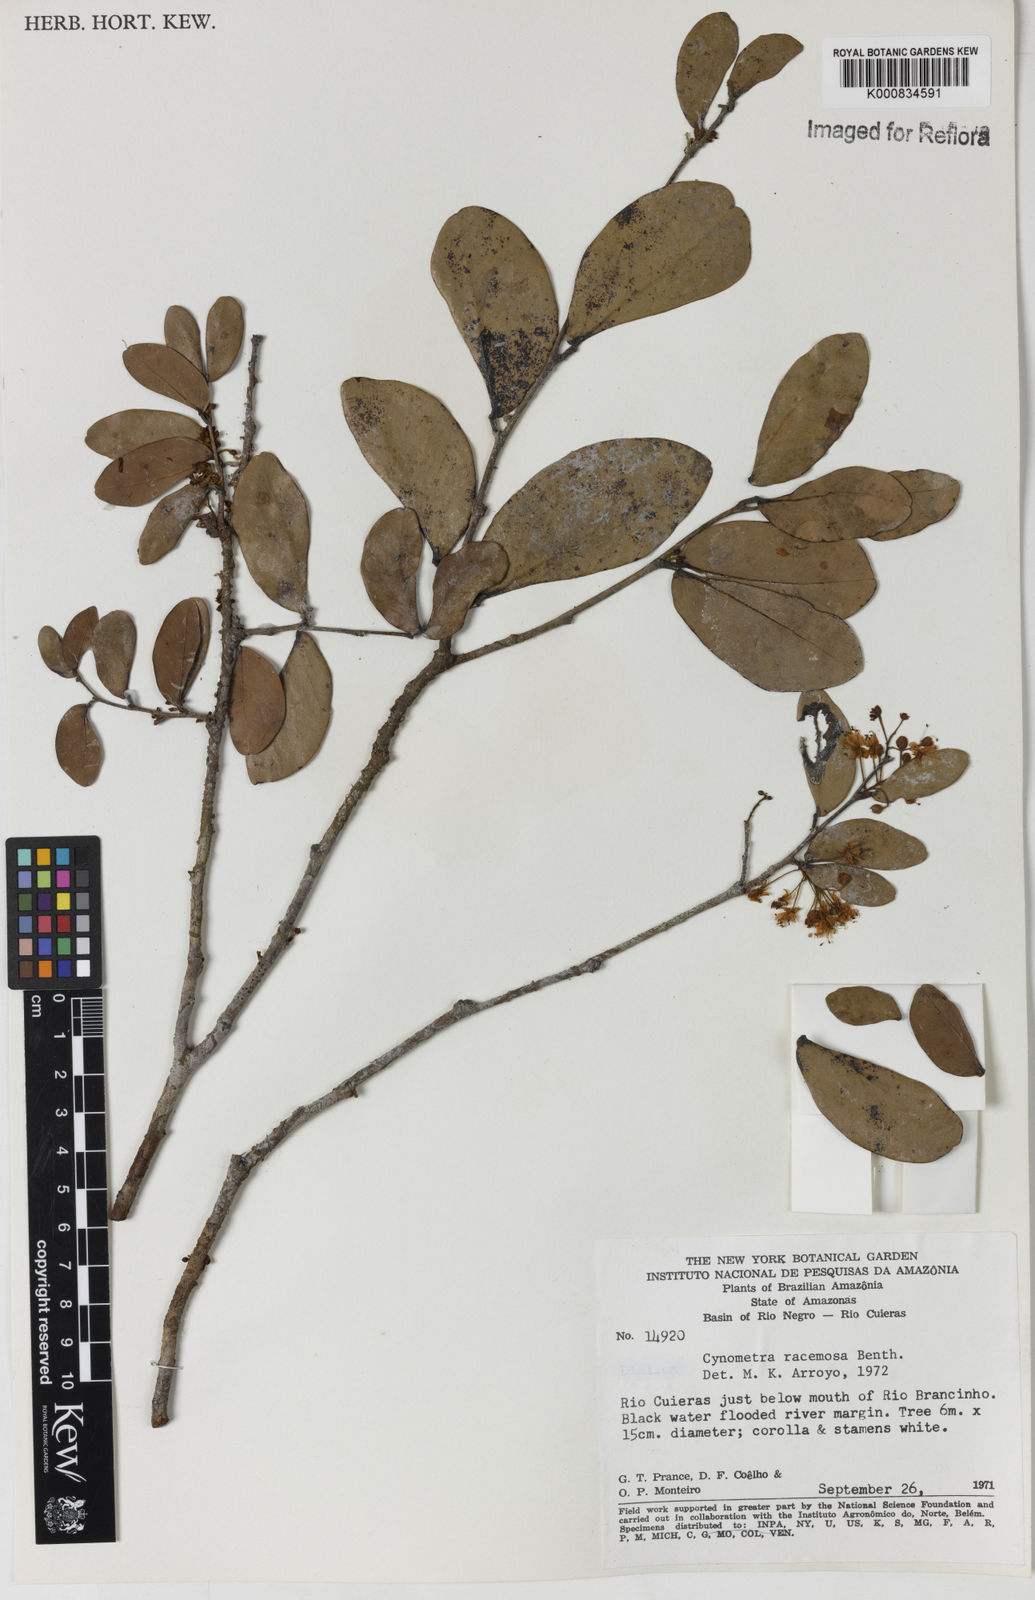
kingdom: Plantae
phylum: Tracheophyta
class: Magnoliopsida
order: Fabales
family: Fabaceae
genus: Cynometra
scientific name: Cynometra phaselocarpa
